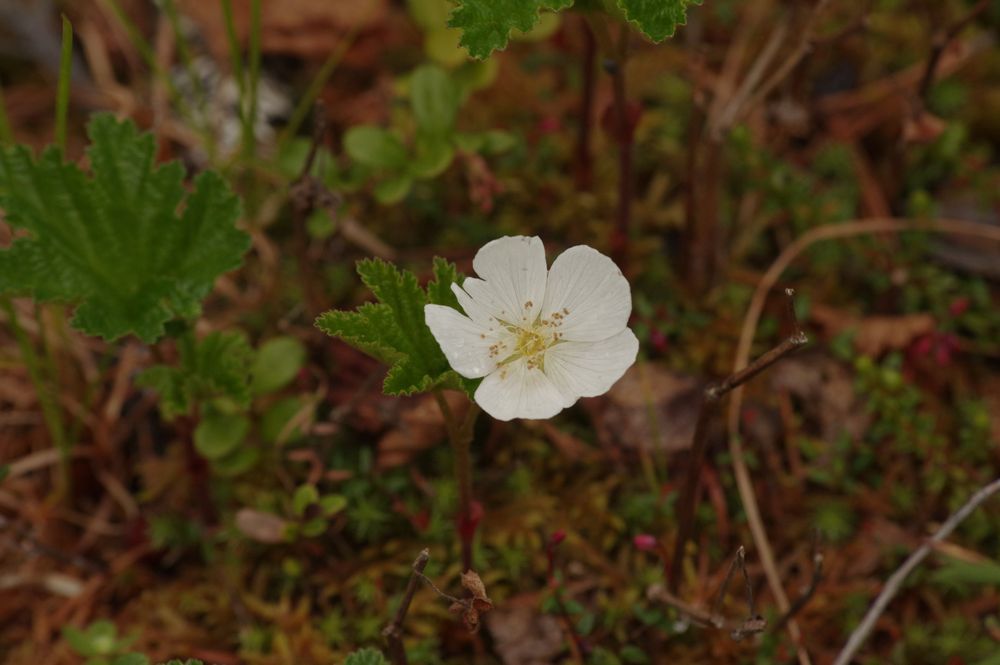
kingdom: Plantae
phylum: Tracheophyta
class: Magnoliopsida
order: Rosales
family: Rosaceae
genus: Rubus
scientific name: Rubus chamaemorus
